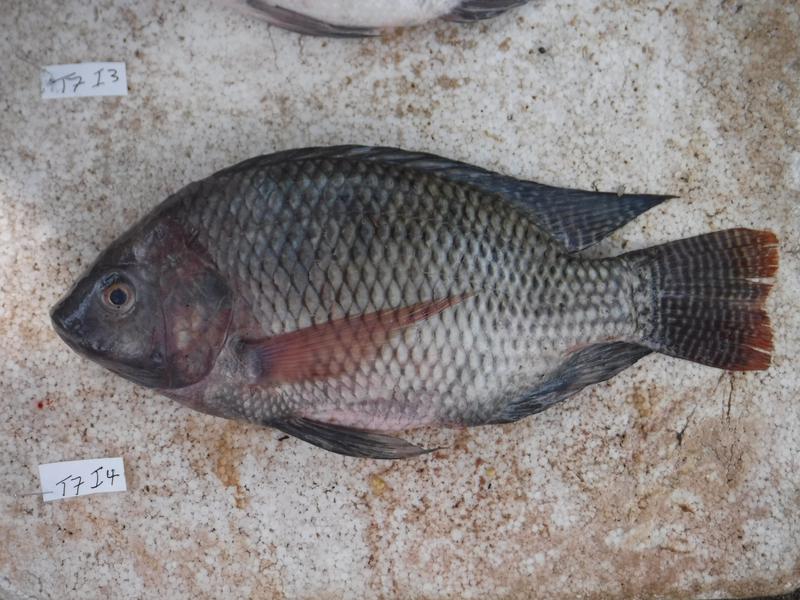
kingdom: Animalia
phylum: Chordata
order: Perciformes
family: Cichlidae
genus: Oreochromis
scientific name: Oreochromis niloticus
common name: Nile tilapia
